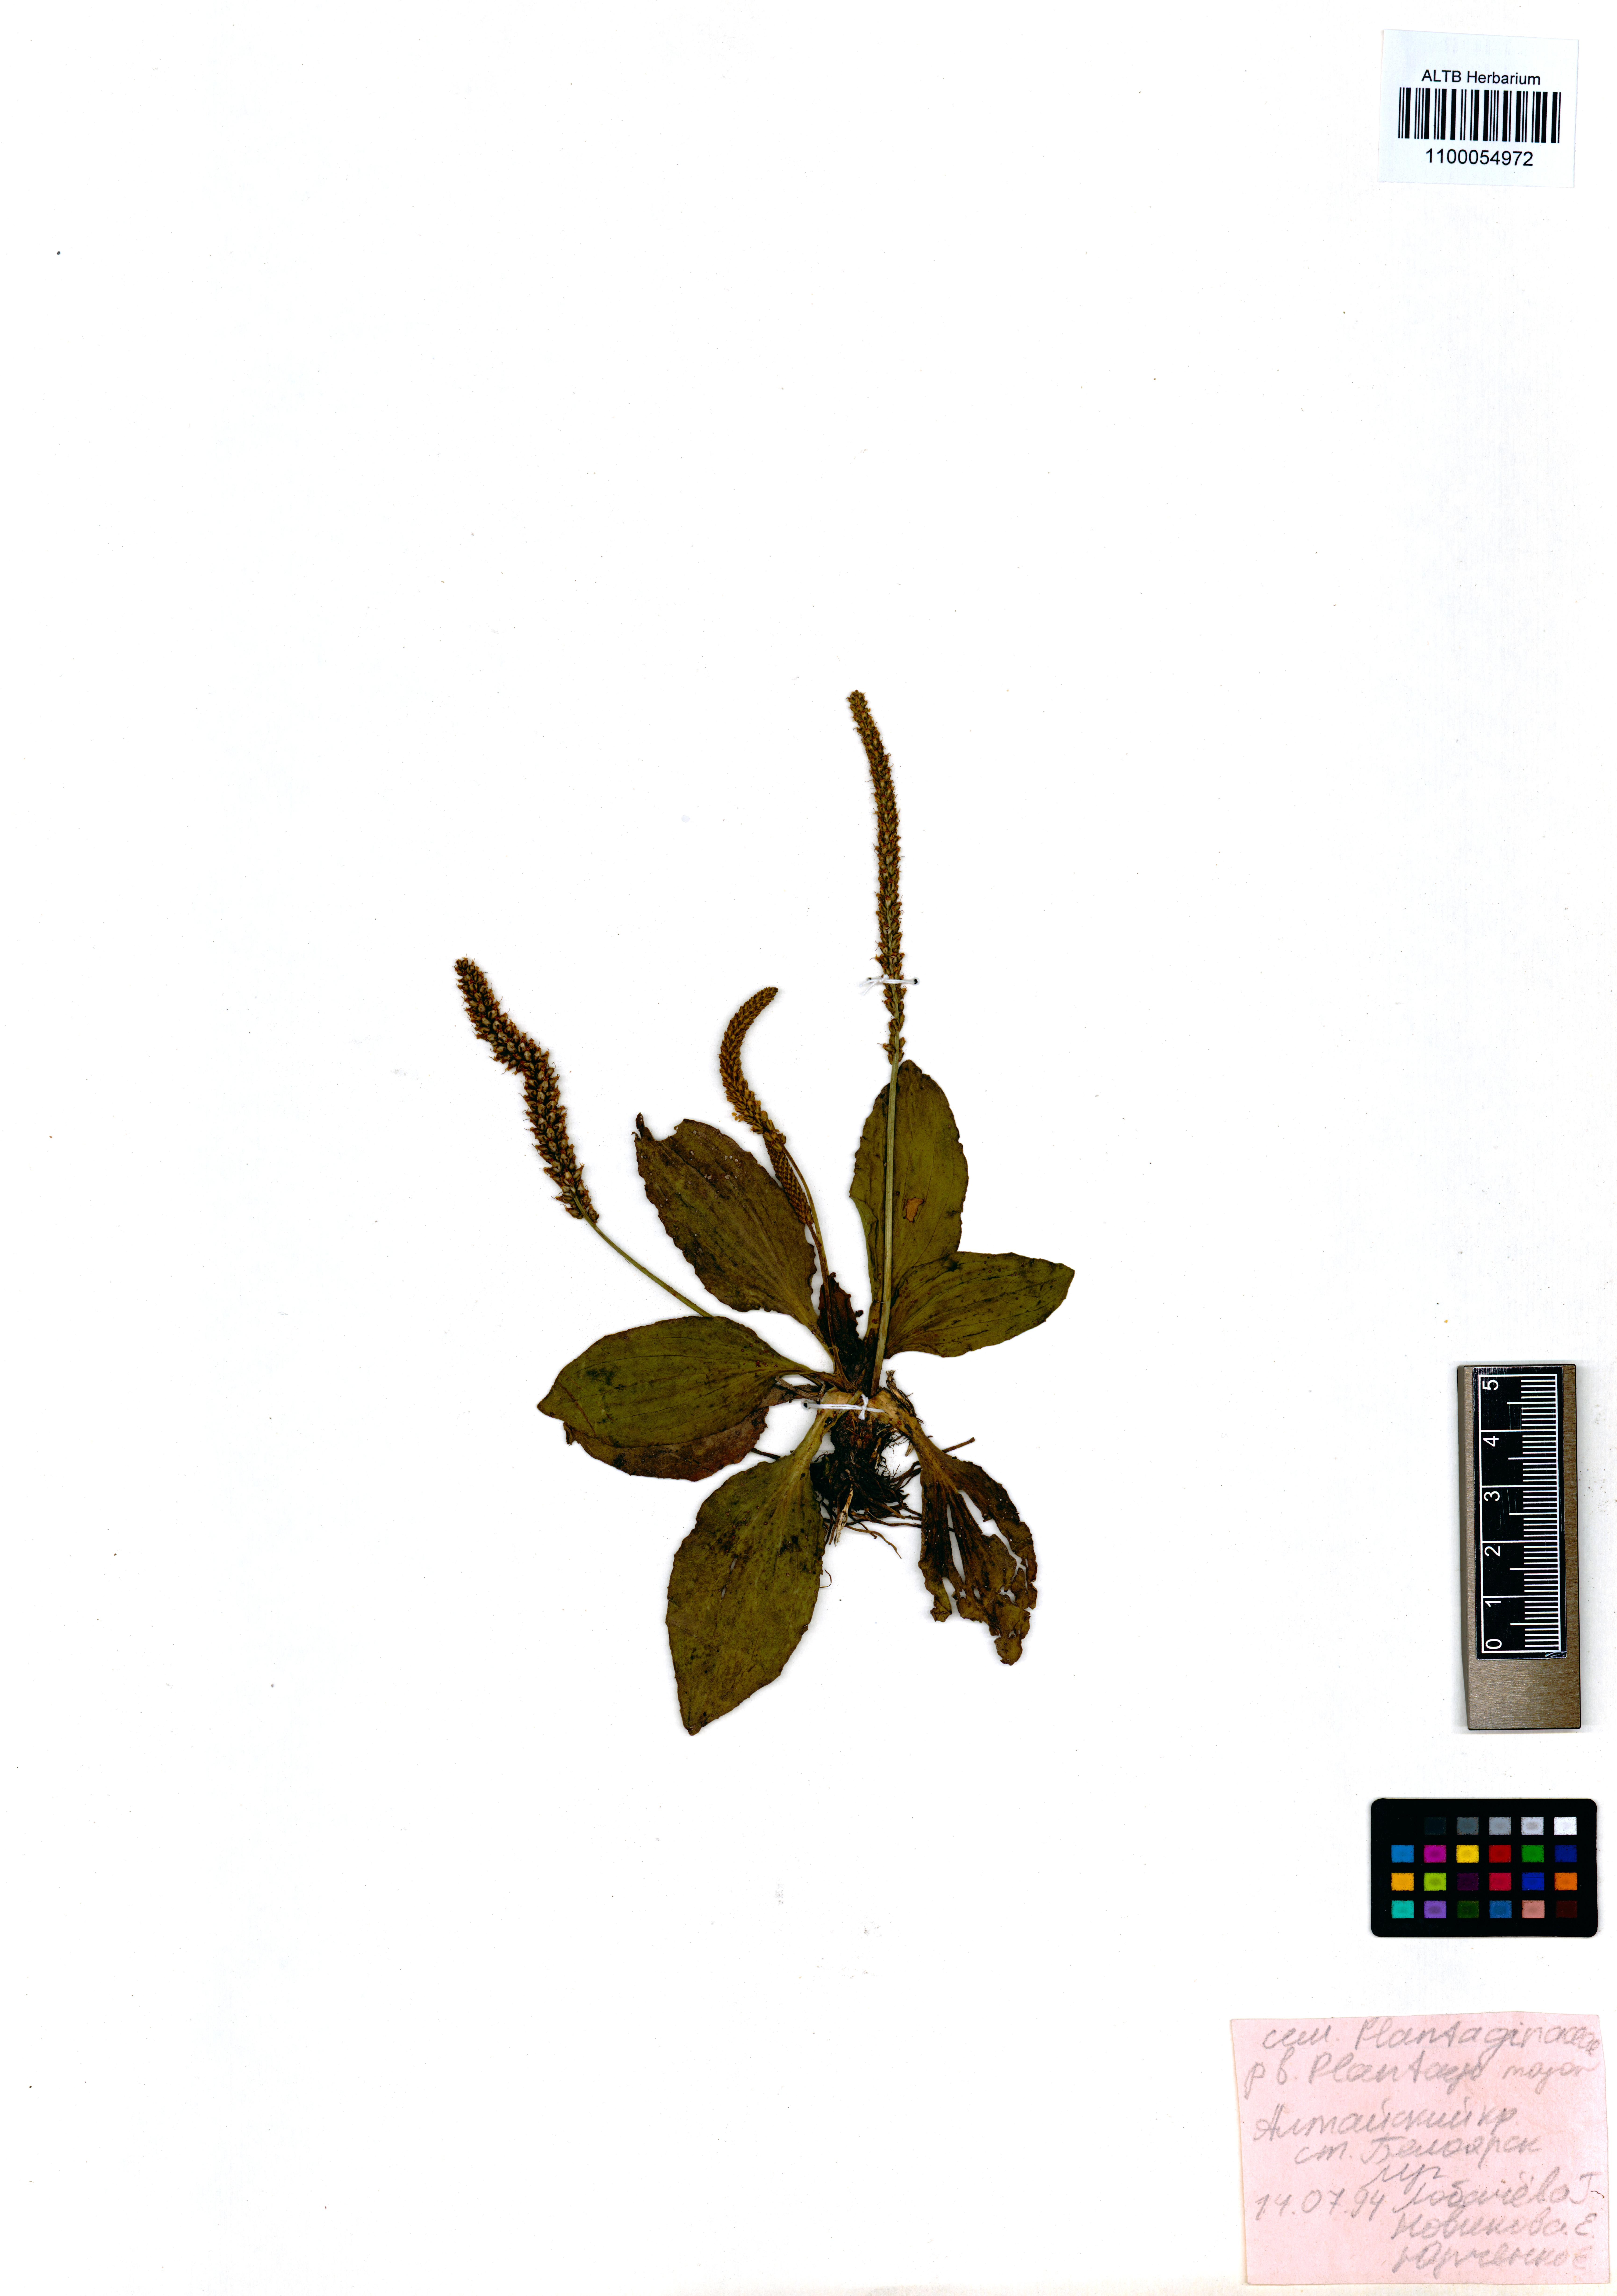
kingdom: Plantae
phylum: Tracheophyta
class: Magnoliopsida
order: Lamiales
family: Plantaginaceae
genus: Plantago
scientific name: Plantago major
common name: Common plantain
